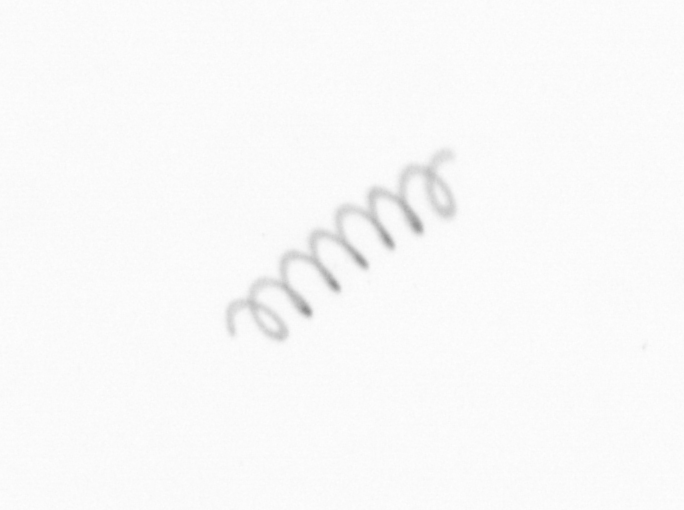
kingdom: Chromista
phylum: Ochrophyta
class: Bacillariophyceae
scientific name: Bacillariophyceae
